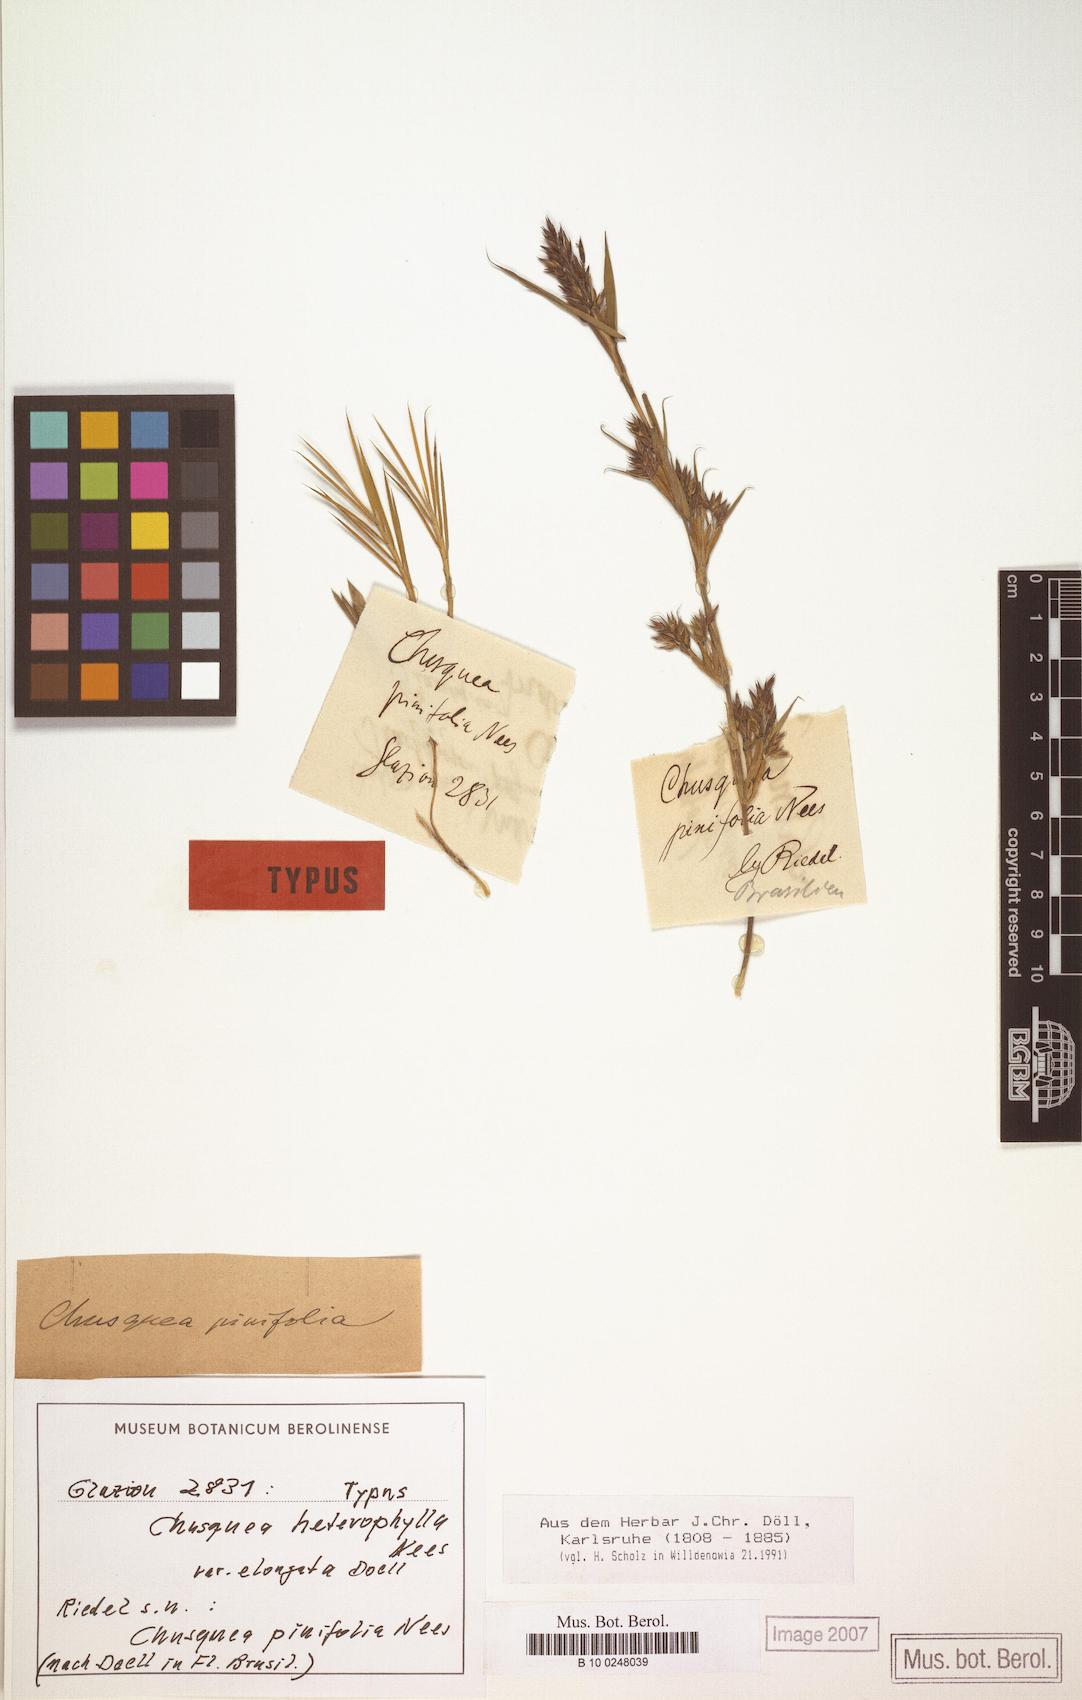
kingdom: Plantae
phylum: Tracheophyta
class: Liliopsida
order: Poales
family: Poaceae
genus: Chusquea
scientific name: Chusquea heterophylla
